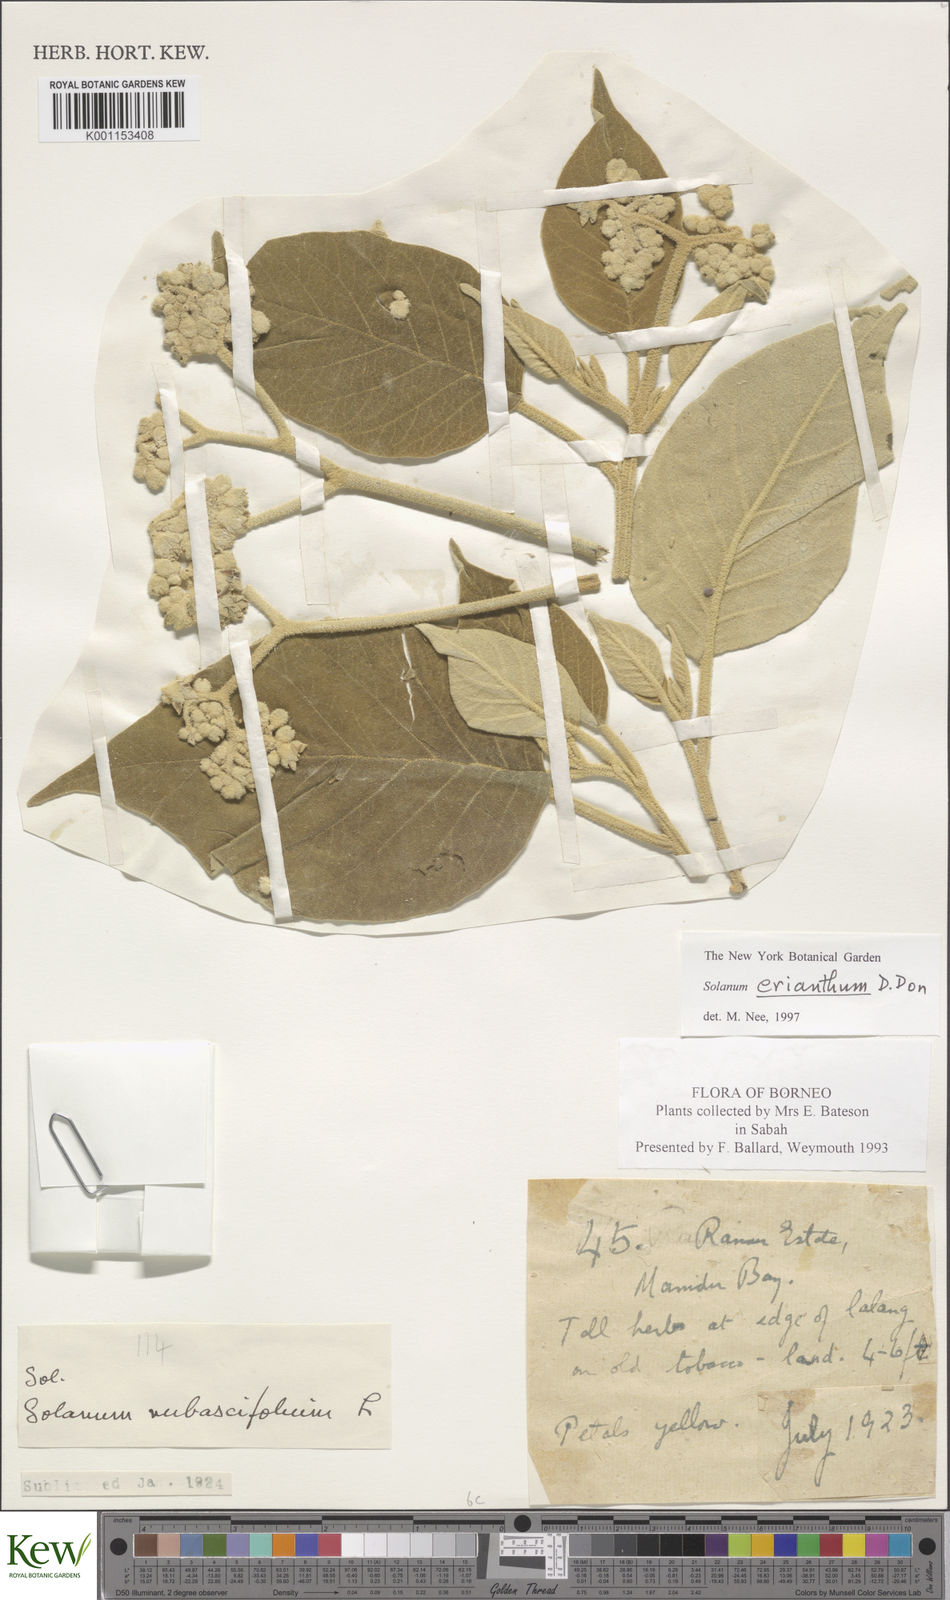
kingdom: Plantae
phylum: Tracheophyta
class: Magnoliopsida
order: Solanales
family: Solanaceae
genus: Solanum
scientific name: Solanum erianthum
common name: Tobacco-tree
